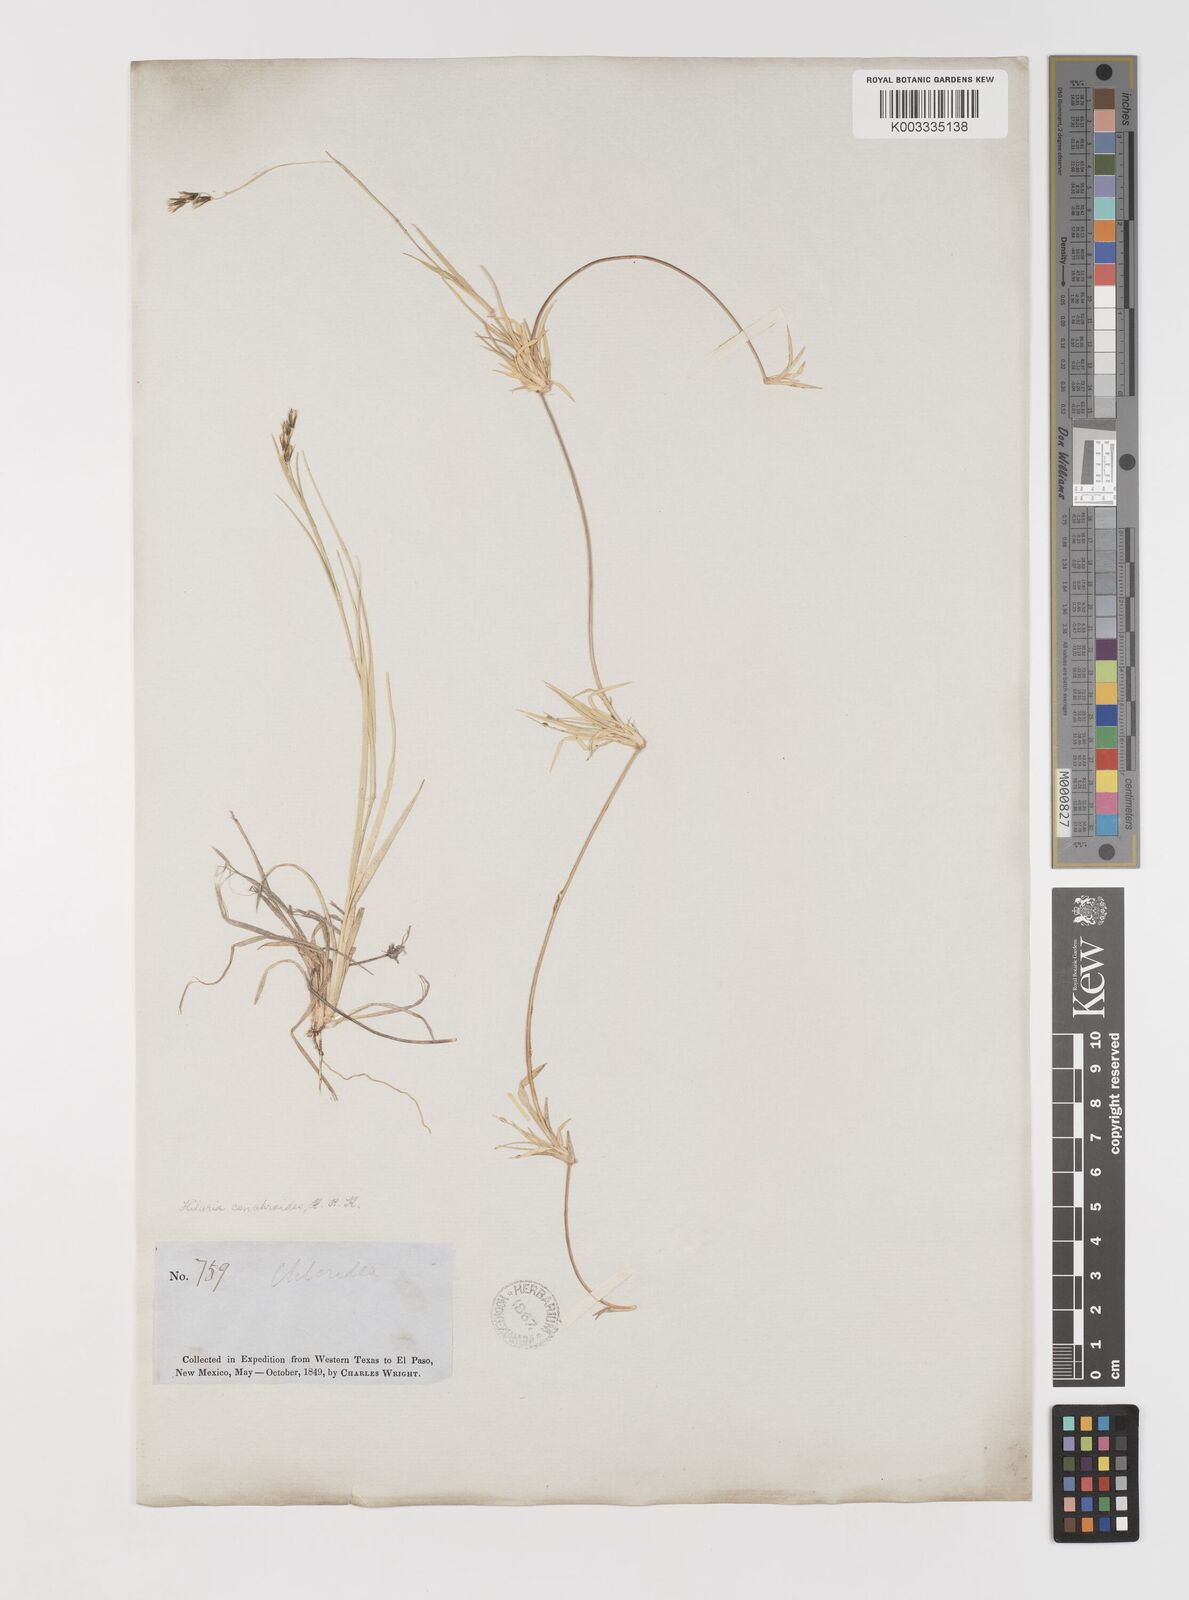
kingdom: Plantae
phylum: Tracheophyta
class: Liliopsida
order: Poales
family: Poaceae
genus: Hilaria
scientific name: Hilaria swallenii
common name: Swallen's curly-mesquite
